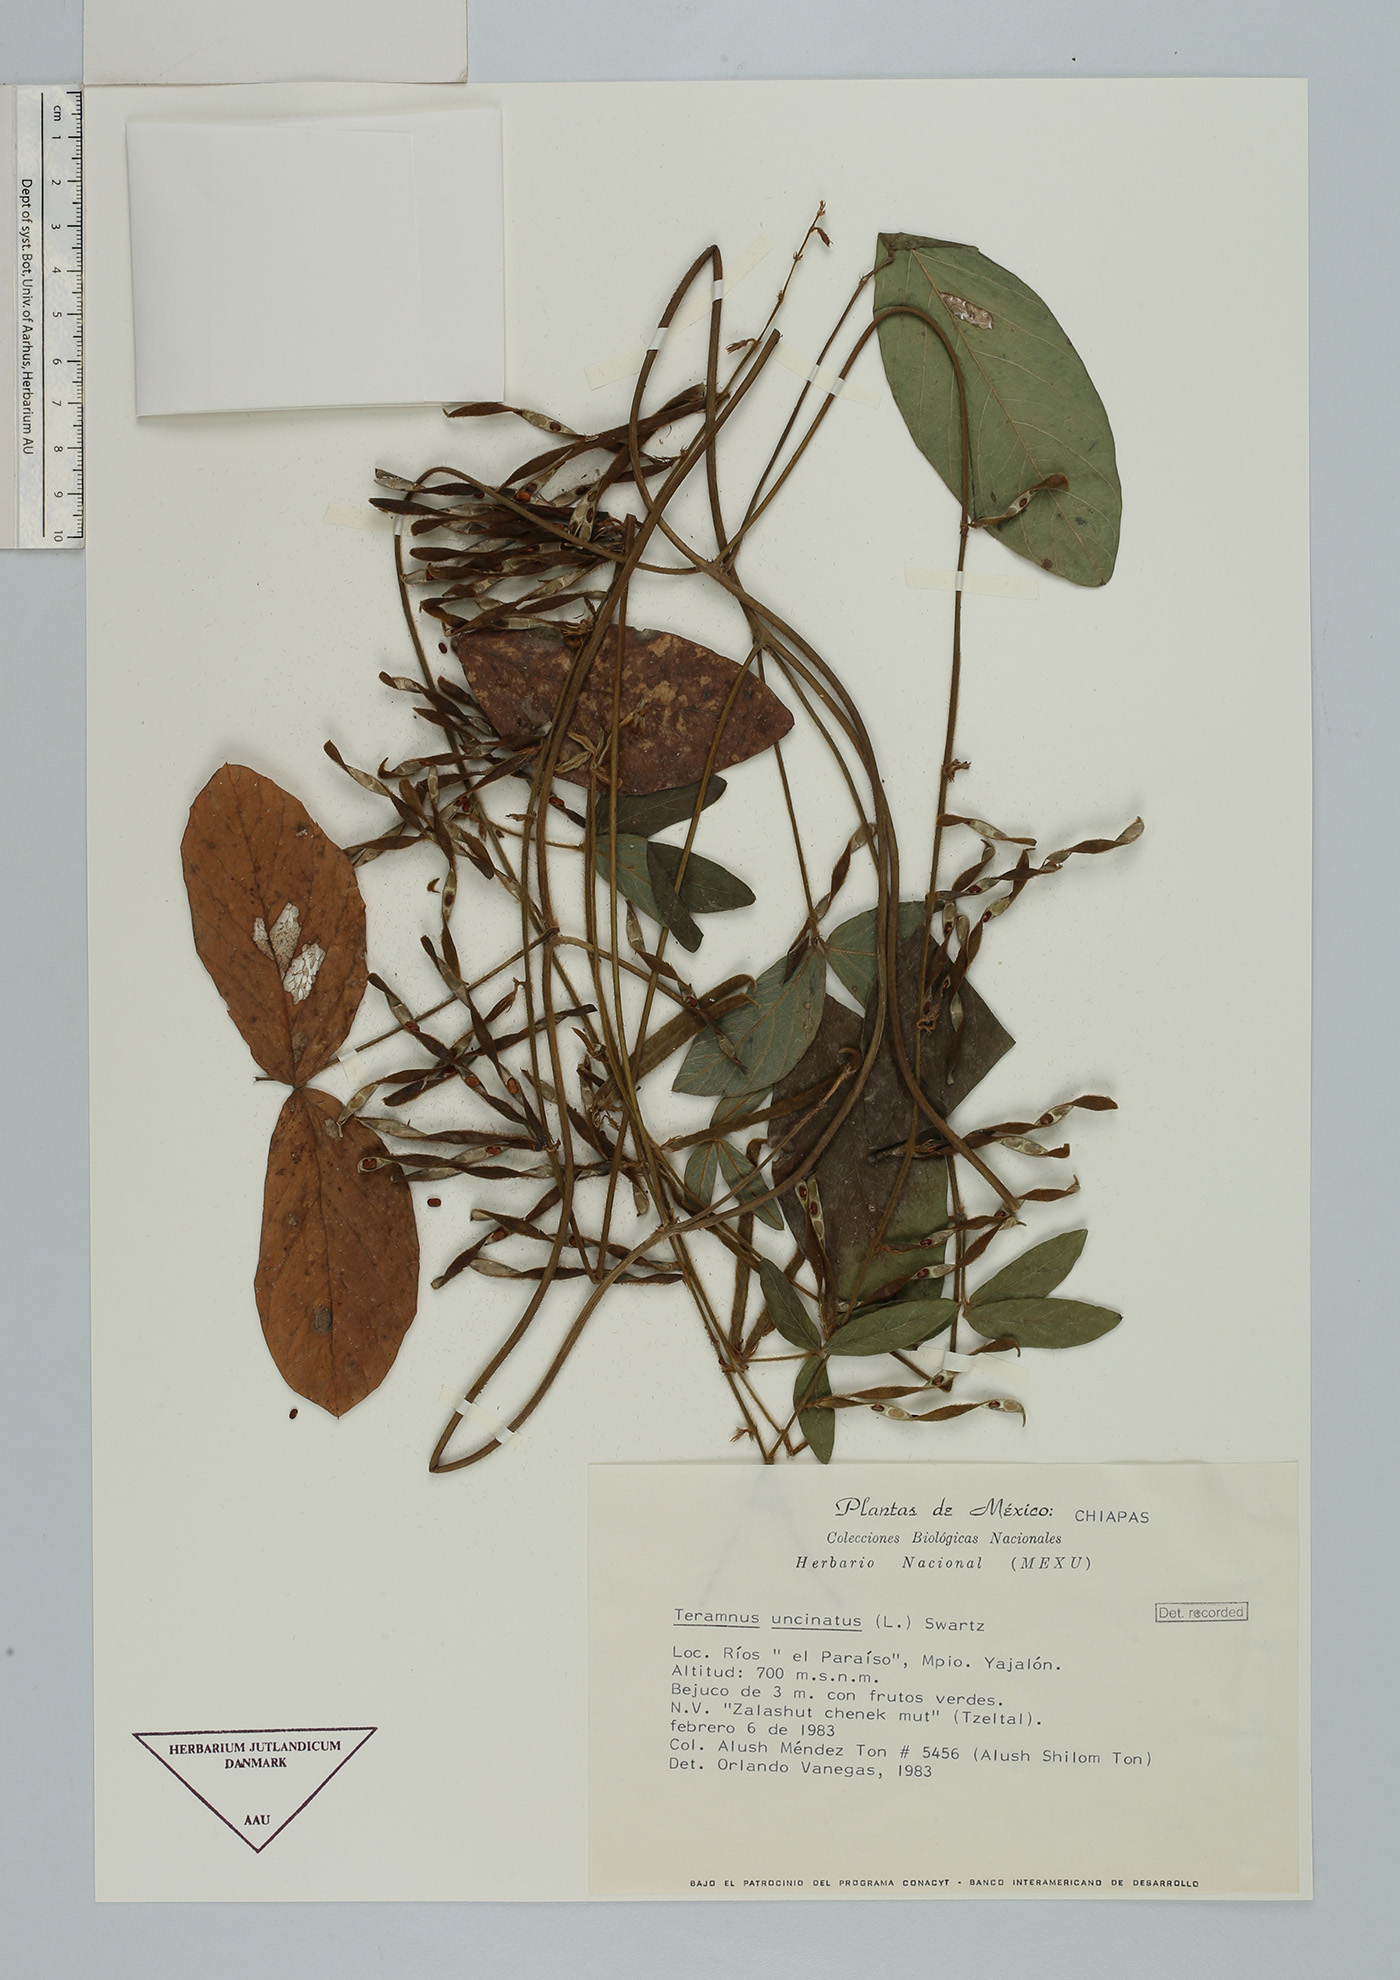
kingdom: Plantae
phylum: Tracheophyta
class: Magnoliopsida
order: Fabales
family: Fabaceae
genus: Teramnus
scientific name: Teramnus uncinatus
